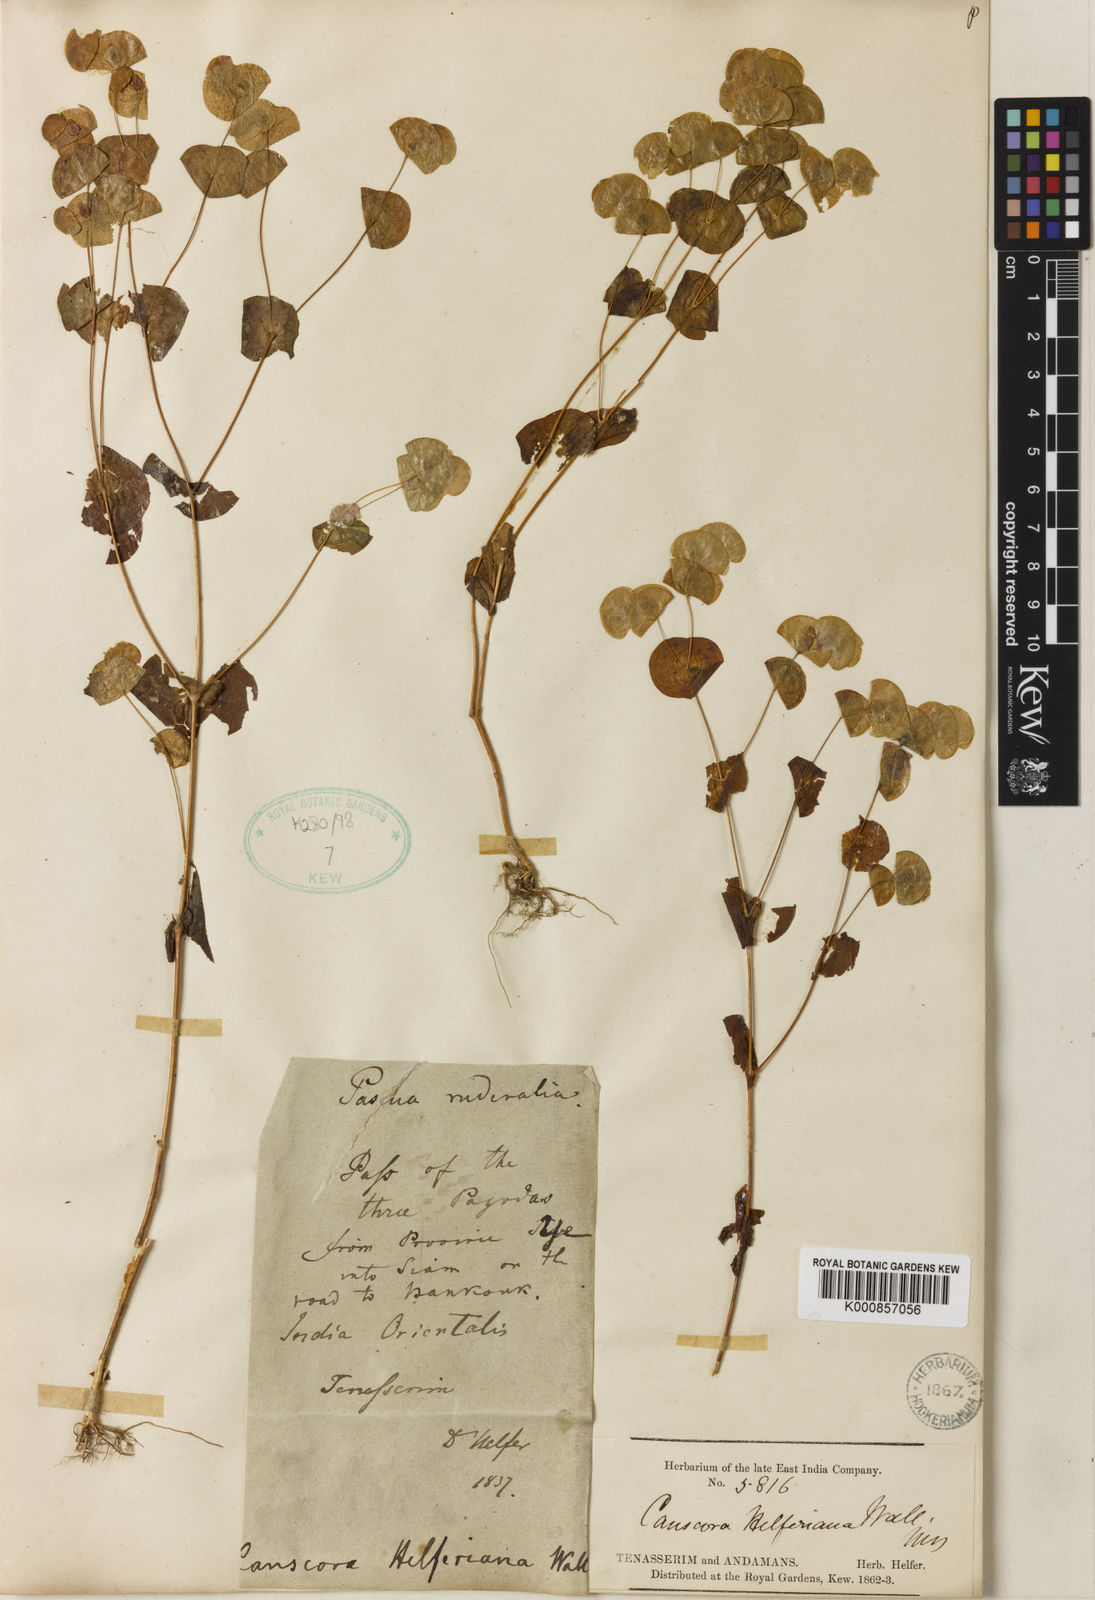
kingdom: Plantae
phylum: Tracheophyta
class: Magnoliopsida
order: Gentianales
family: Gentianaceae
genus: Phyllocyclus
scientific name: Phyllocyclus helferianus
